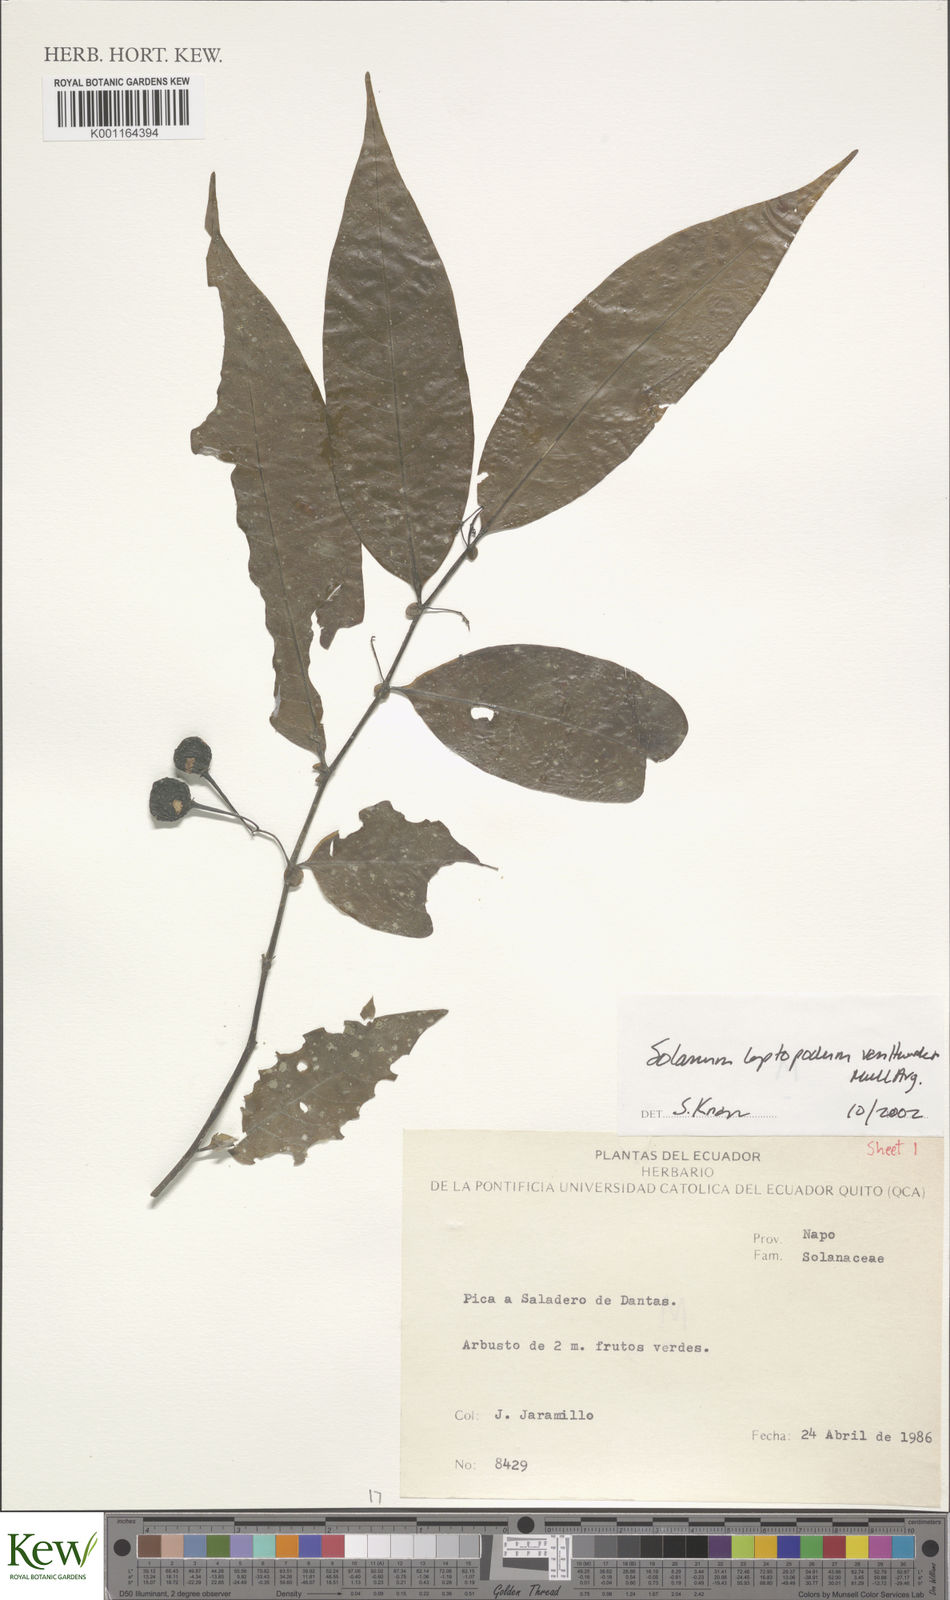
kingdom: Plantae
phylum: Tracheophyta
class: Magnoliopsida
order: Solanales
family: Solanaceae
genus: Solanum
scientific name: Solanum leptopodum
